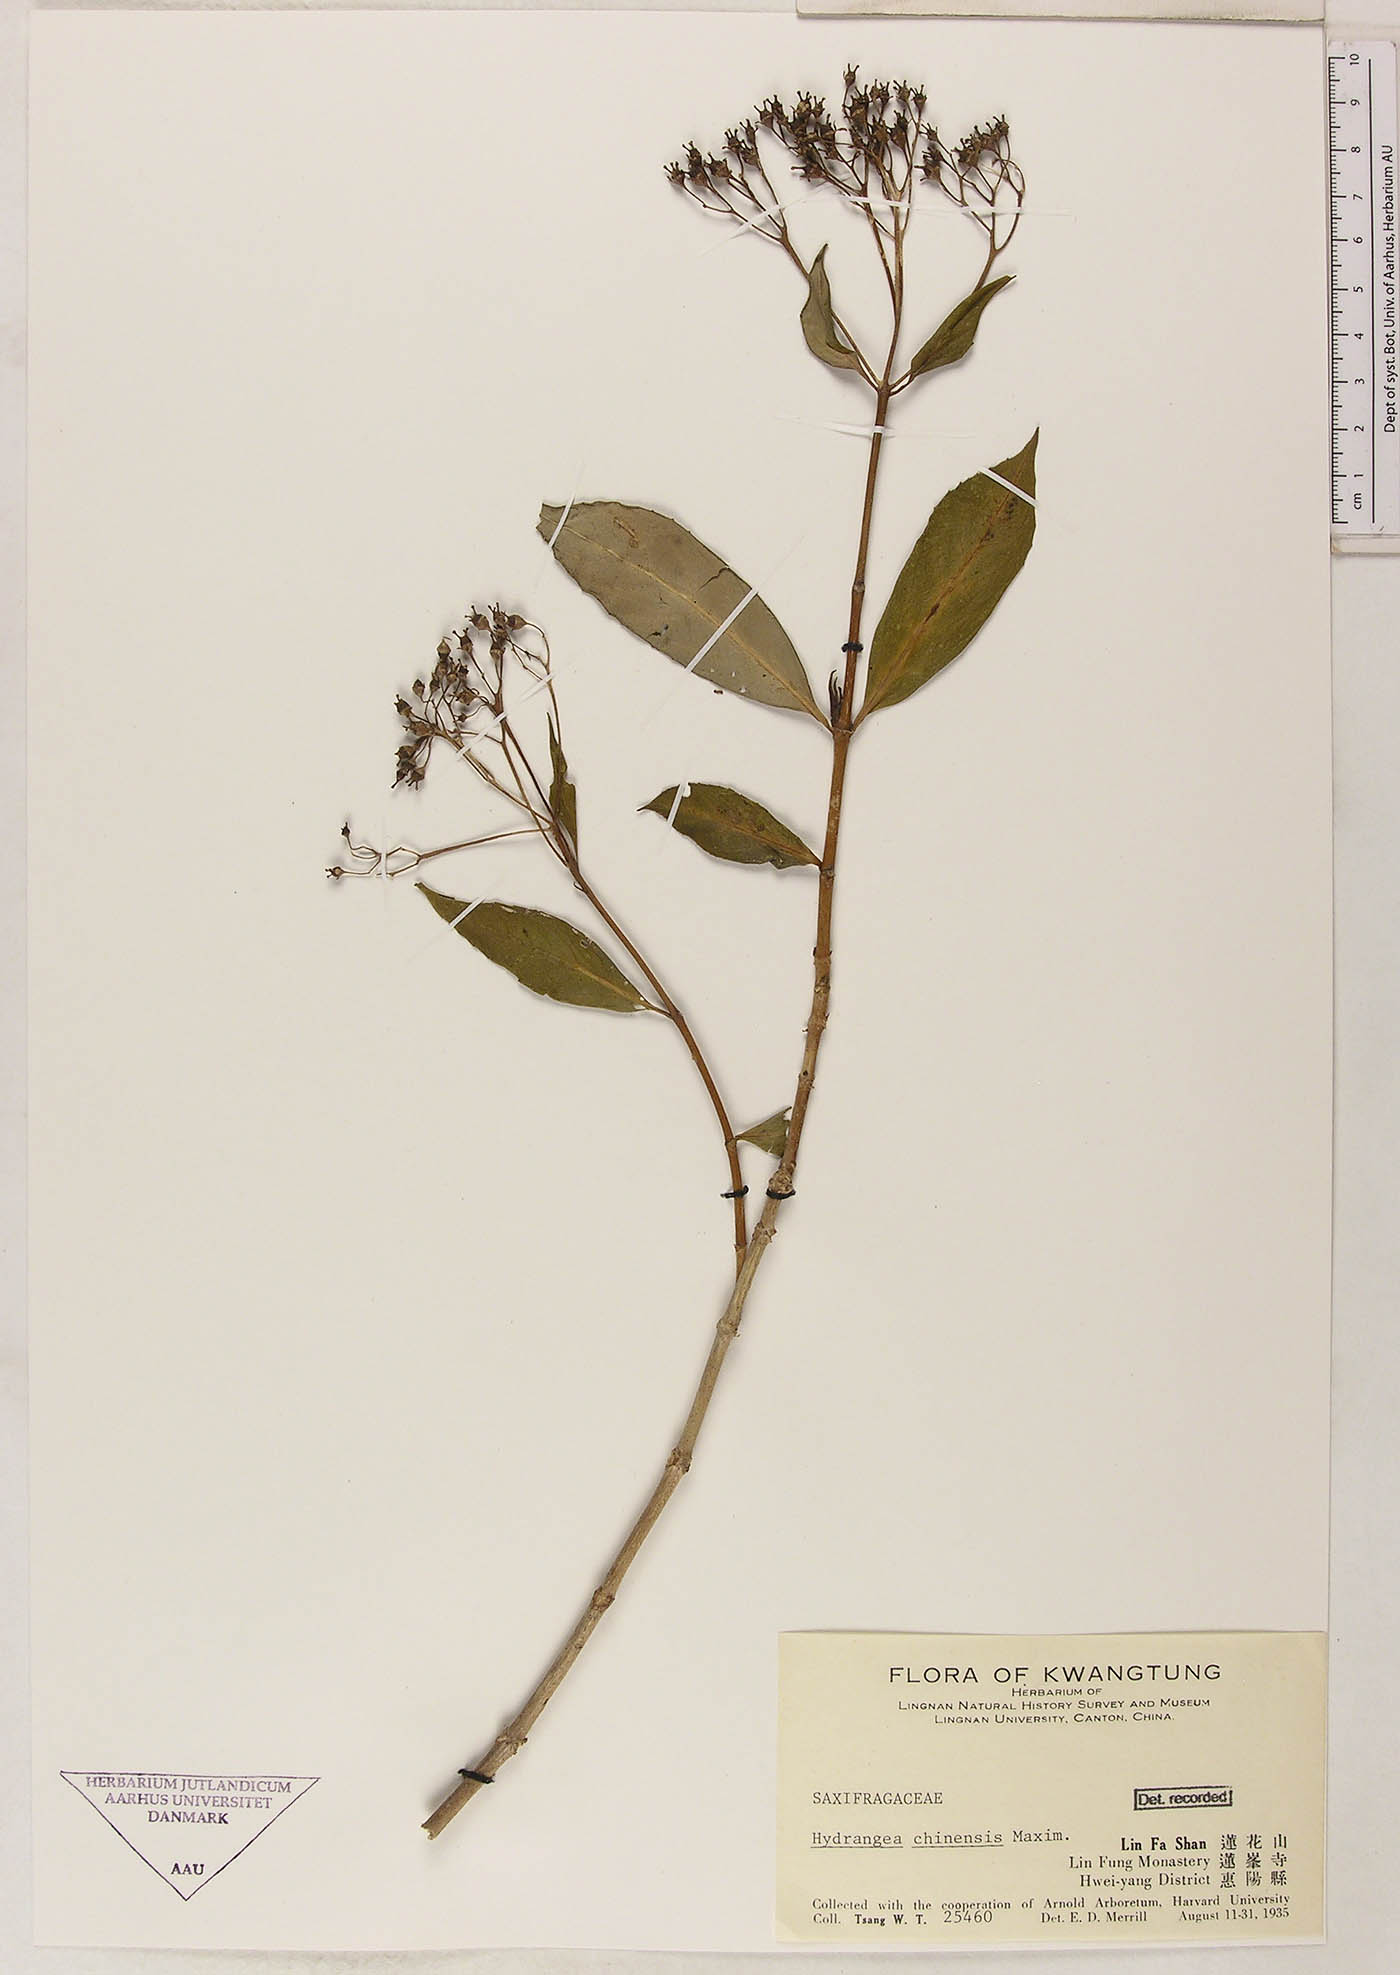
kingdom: Plantae
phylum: Tracheophyta
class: Magnoliopsida
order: Cornales
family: Hydrangeaceae
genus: Hydrangea
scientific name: Hydrangea chinensis
